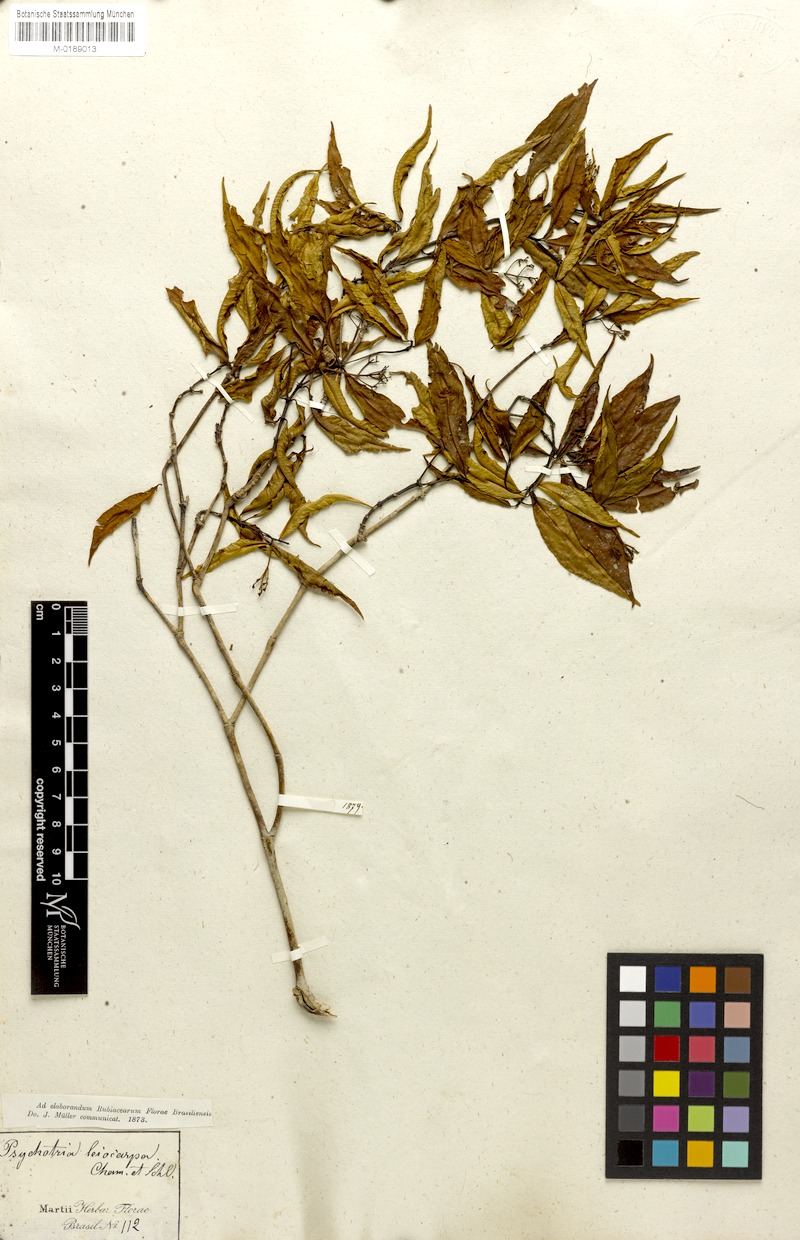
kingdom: Plantae
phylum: Tracheophyta
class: Magnoliopsida
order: Gentianales
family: Rubiaceae
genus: Psychotria
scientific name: Psychotria leiocarpa
